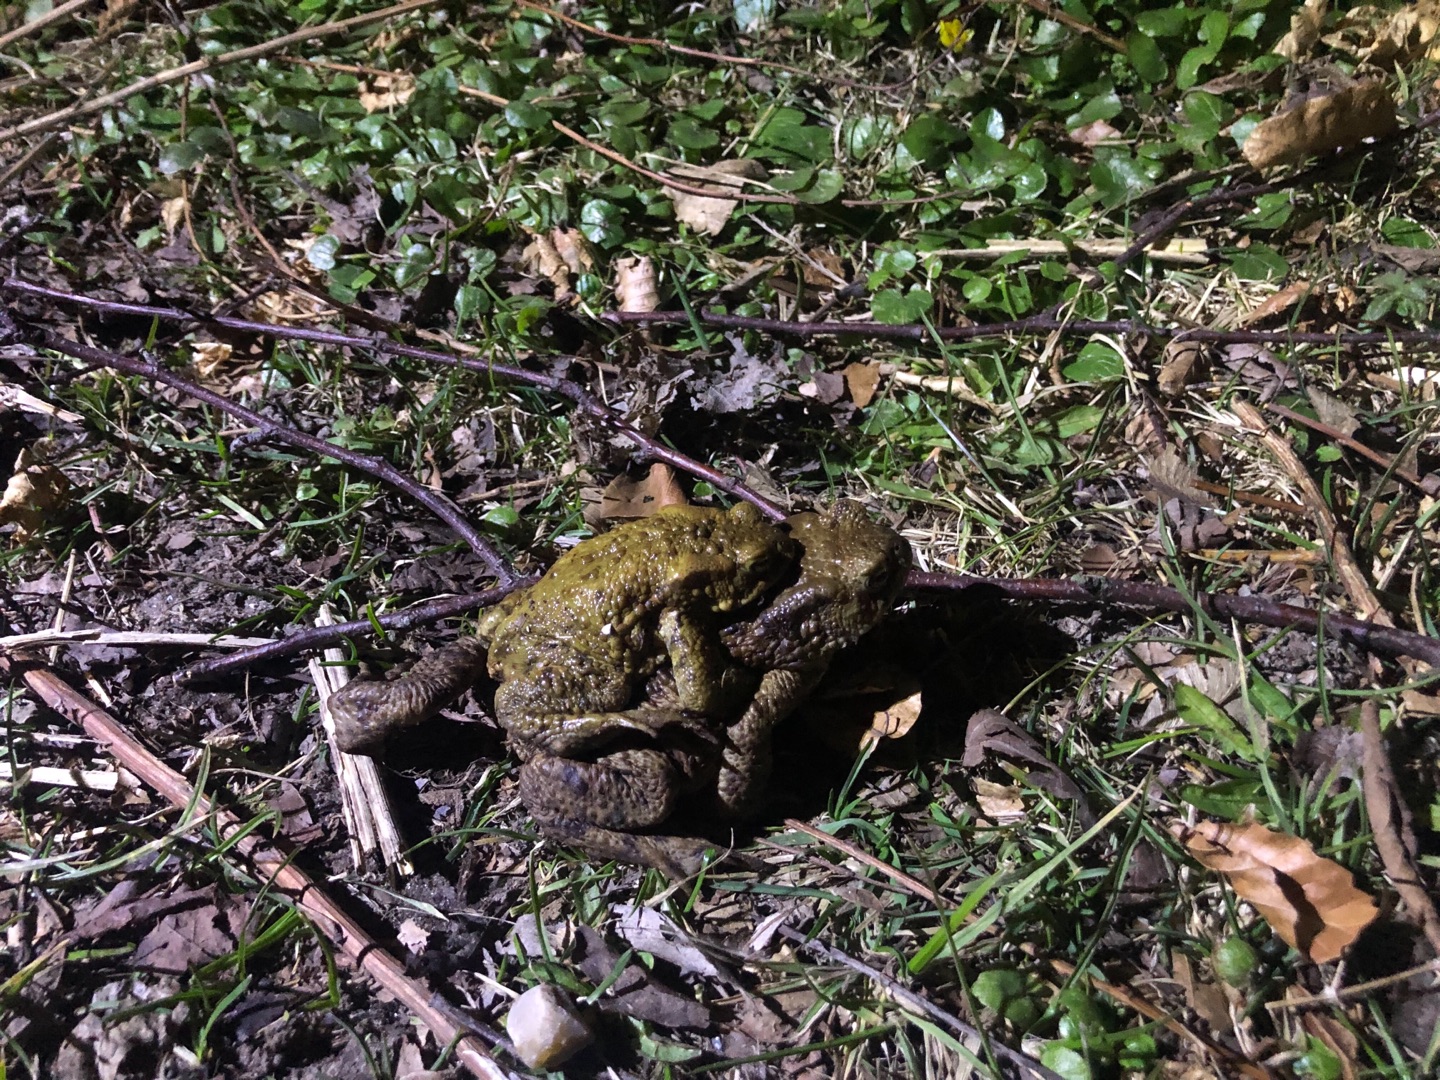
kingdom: Animalia
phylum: Chordata
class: Amphibia
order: Anura
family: Bufonidae
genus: Bufo
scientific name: Bufo bufo
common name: Skrubtudse
